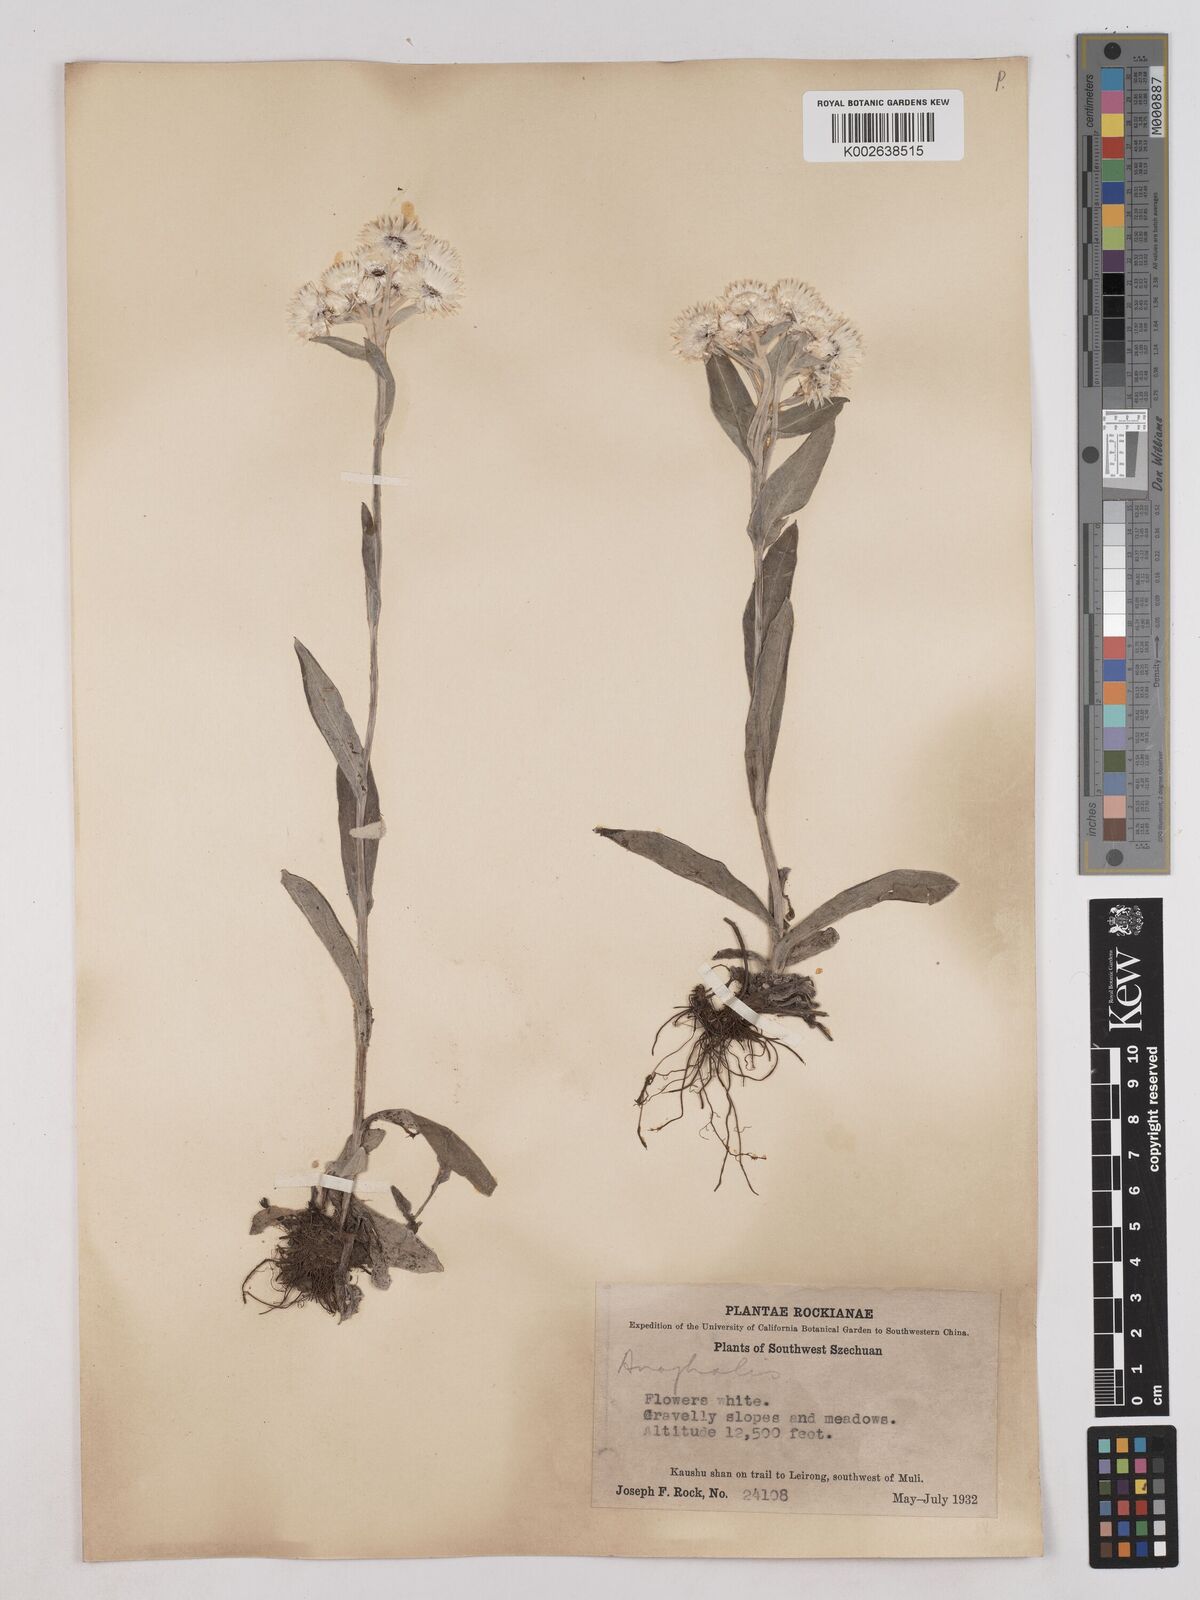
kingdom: Plantae
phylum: Tracheophyta
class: Magnoliopsida
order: Asterales
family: Asteraceae
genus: Anaphalis
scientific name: Anaphalis nepalensis
